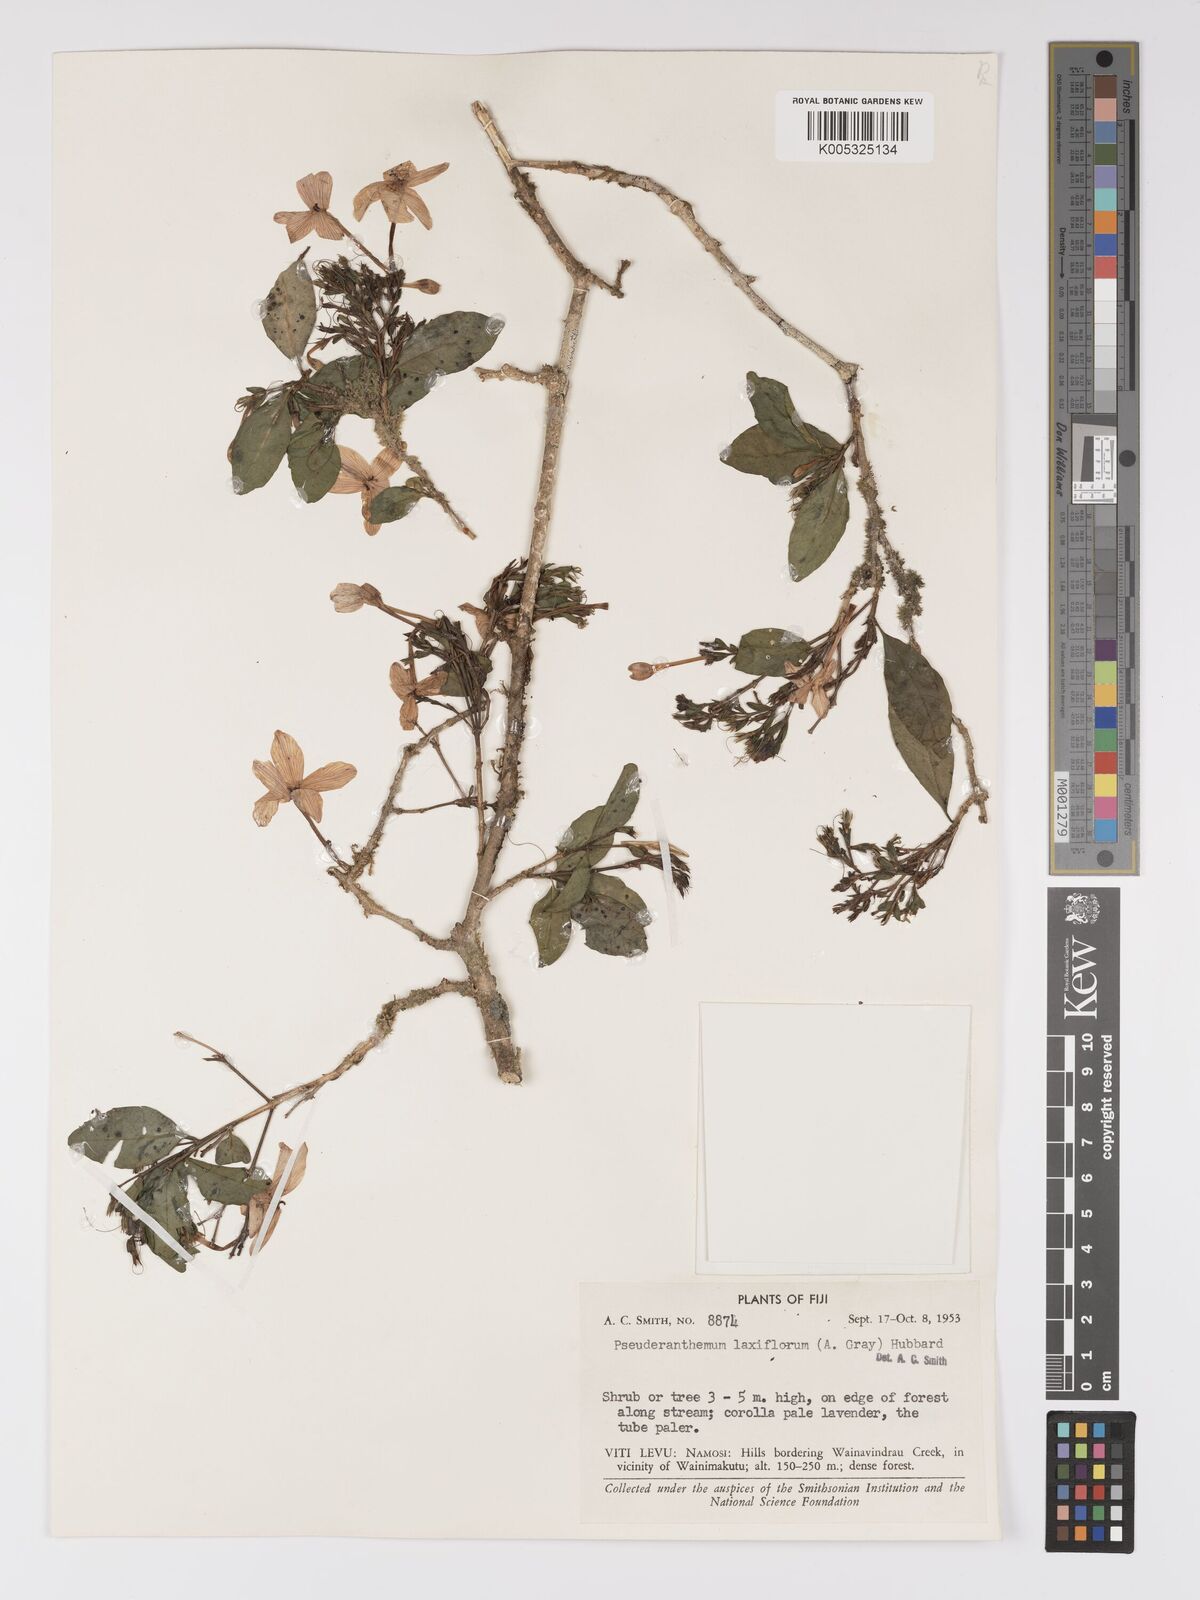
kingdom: Plantae
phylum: Tracheophyta
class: Magnoliopsida
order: Lamiales
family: Acanthaceae
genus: Pseuderanthemum
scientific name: Pseuderanthemum laxiflorum
